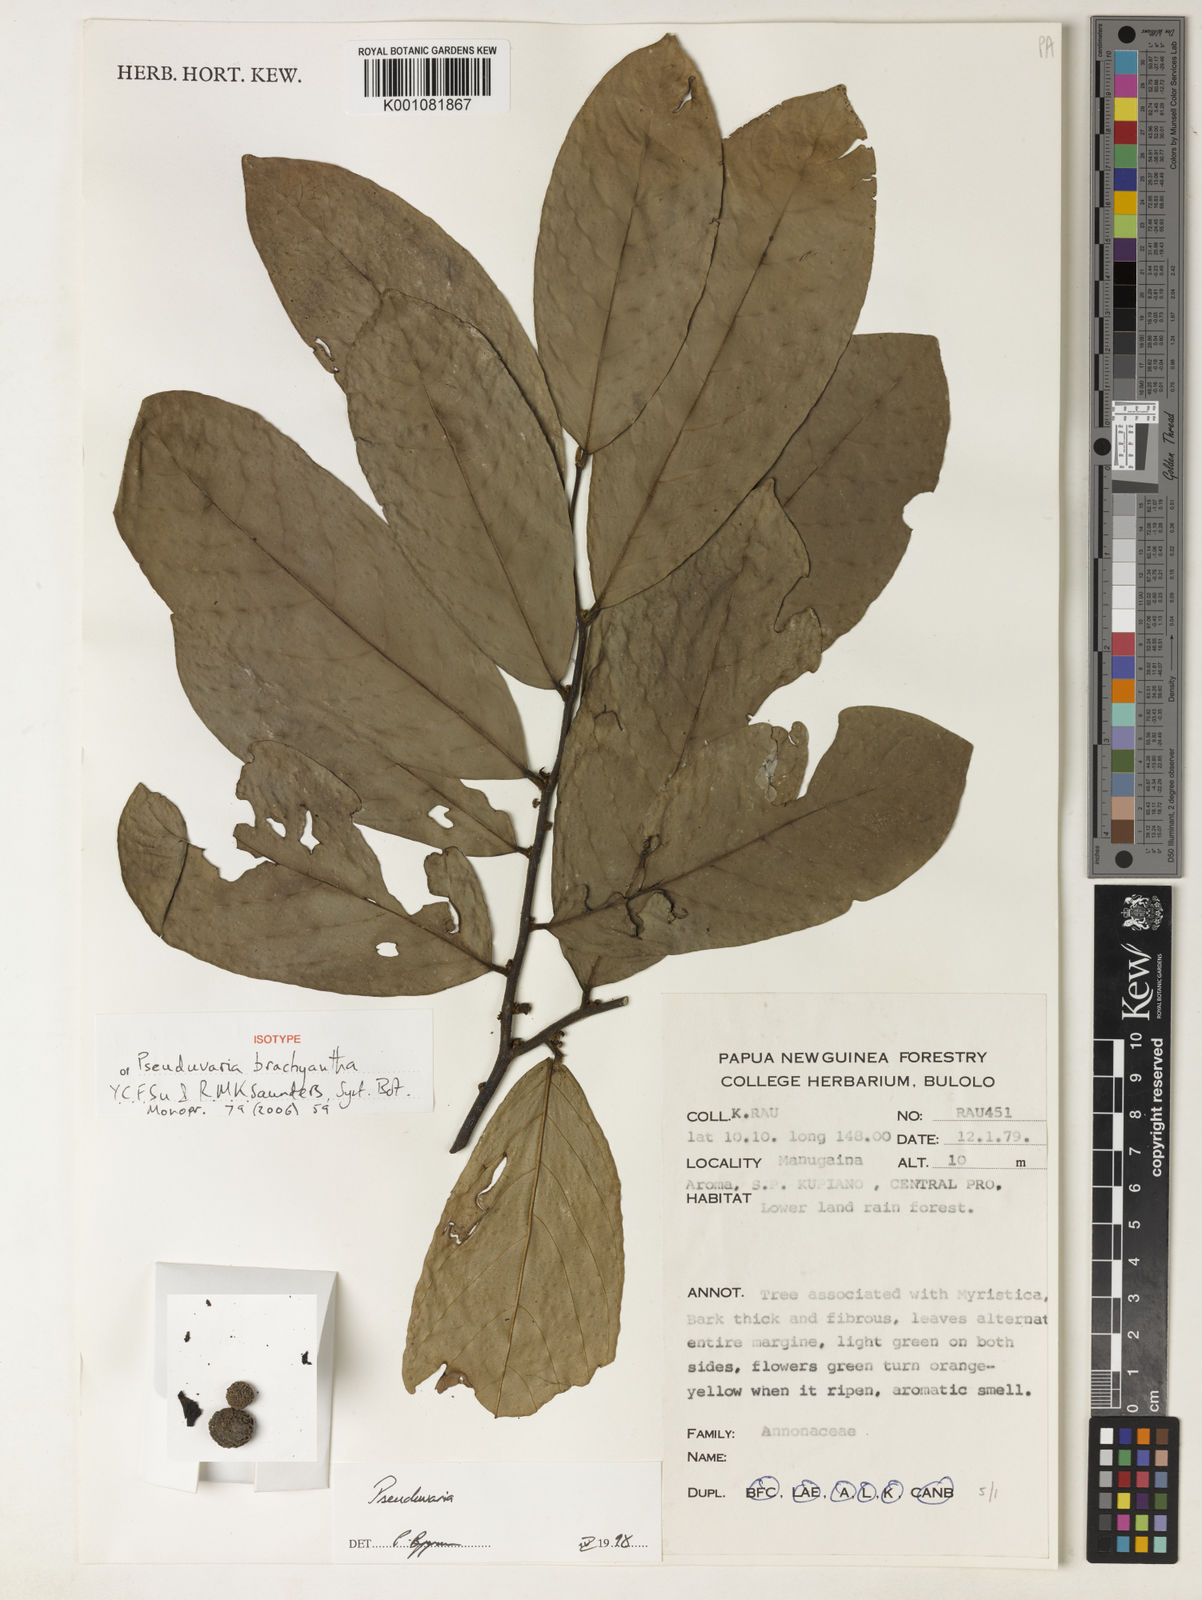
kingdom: Plantae
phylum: Tracheophyta
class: Magnoliopsida
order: Magnoliales
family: Annonaceae
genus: Pseuduvaria
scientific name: Pseuduvaria brachyantha
